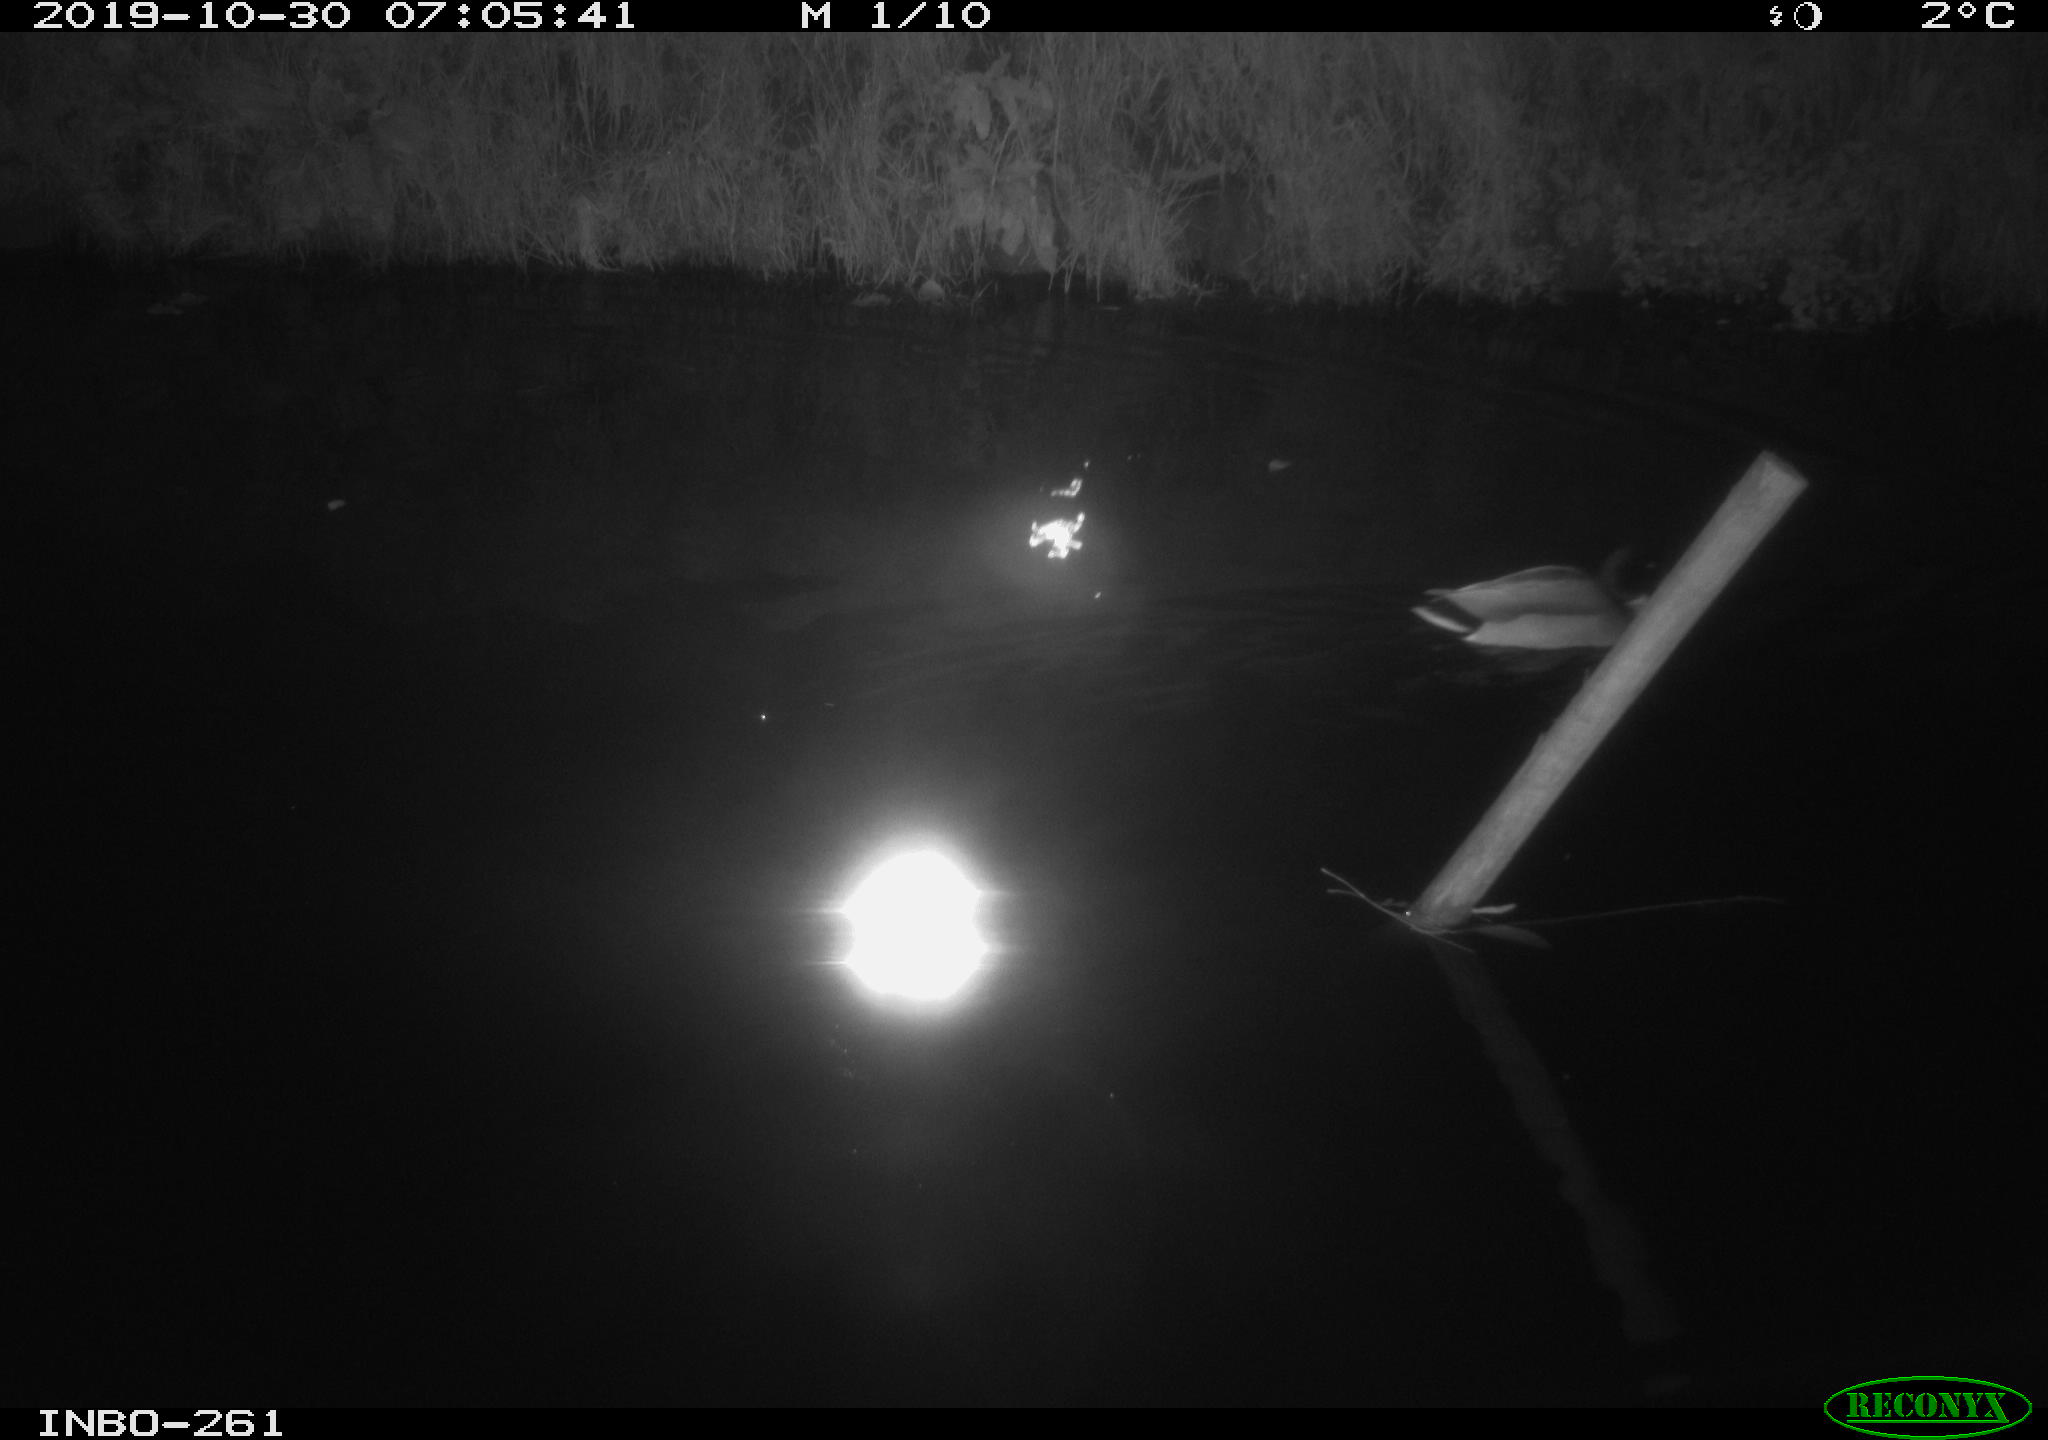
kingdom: Animalia
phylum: Chordata
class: Aves
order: Anseriformes
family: Anatidae
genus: Anas
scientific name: Anas platyrhynchos
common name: Mallard
